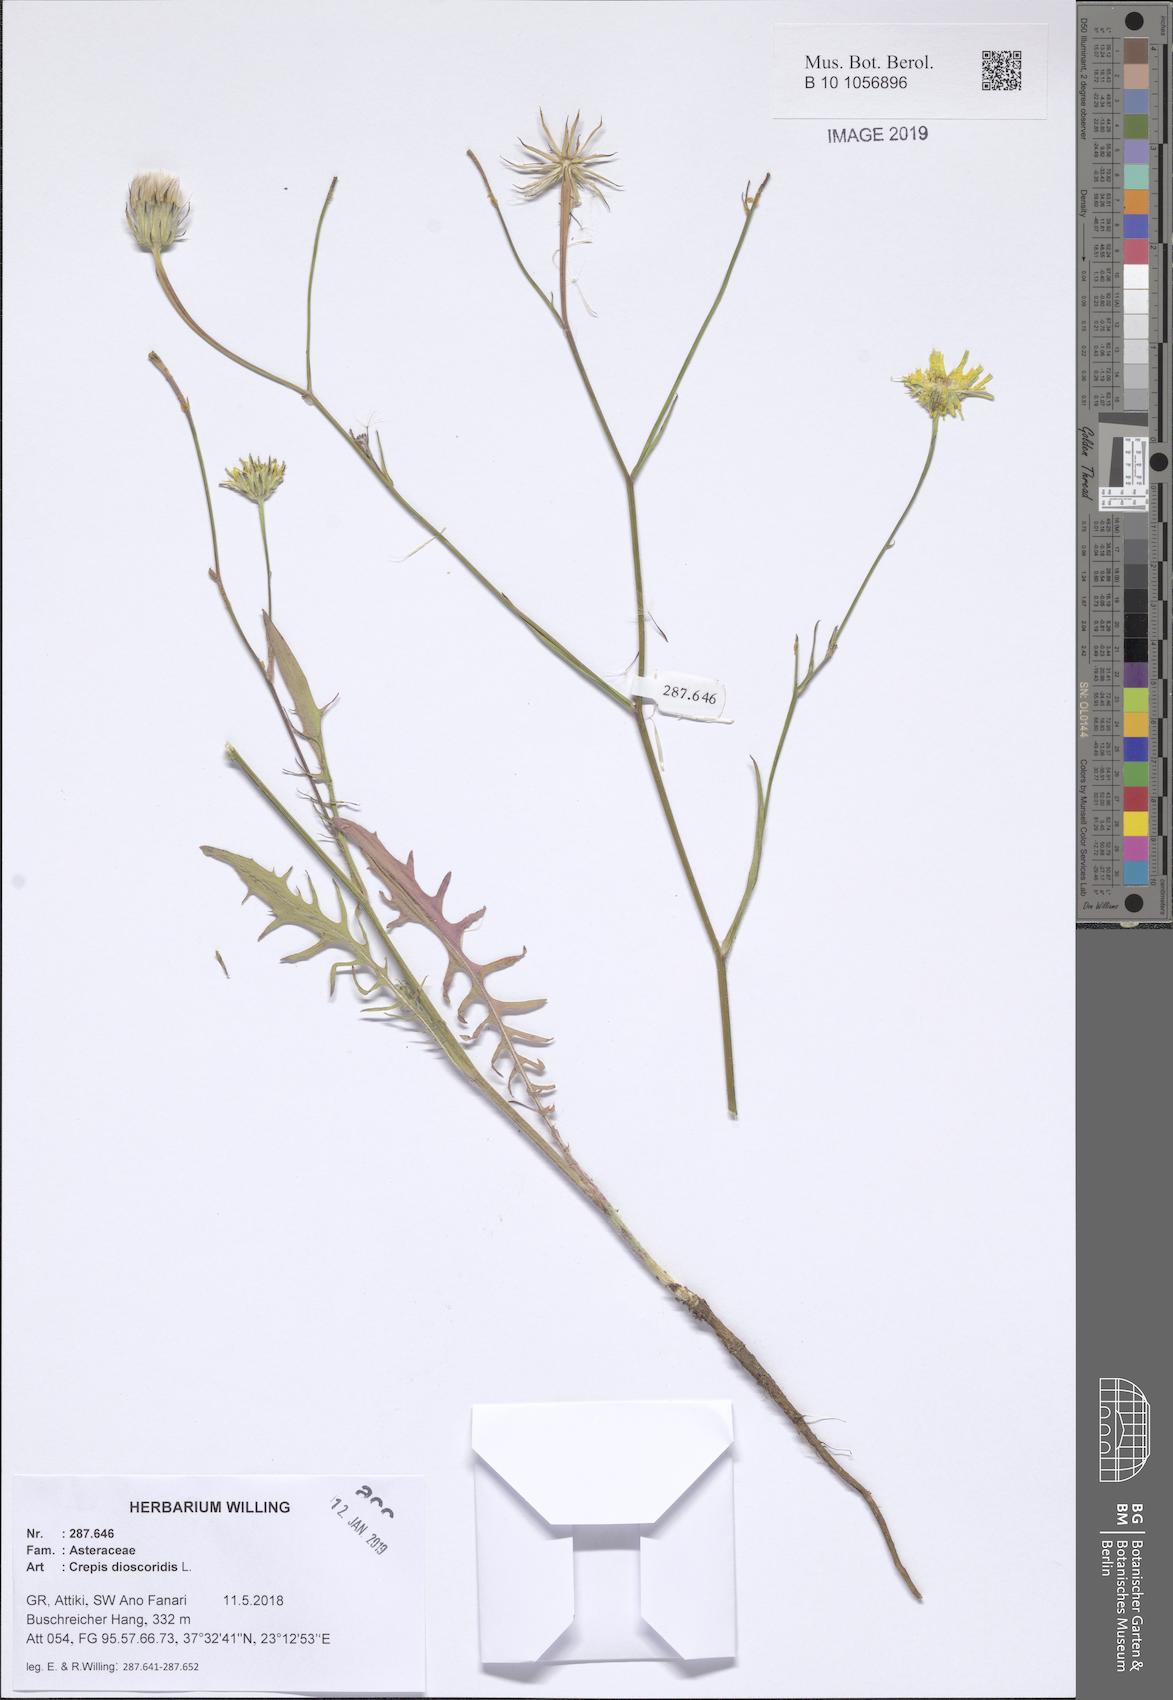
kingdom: Plantae
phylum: Tracheophyta
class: Magnoliopsida
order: Asterales
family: Asteraceae
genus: Crepis
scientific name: Crepis dioscoridis
